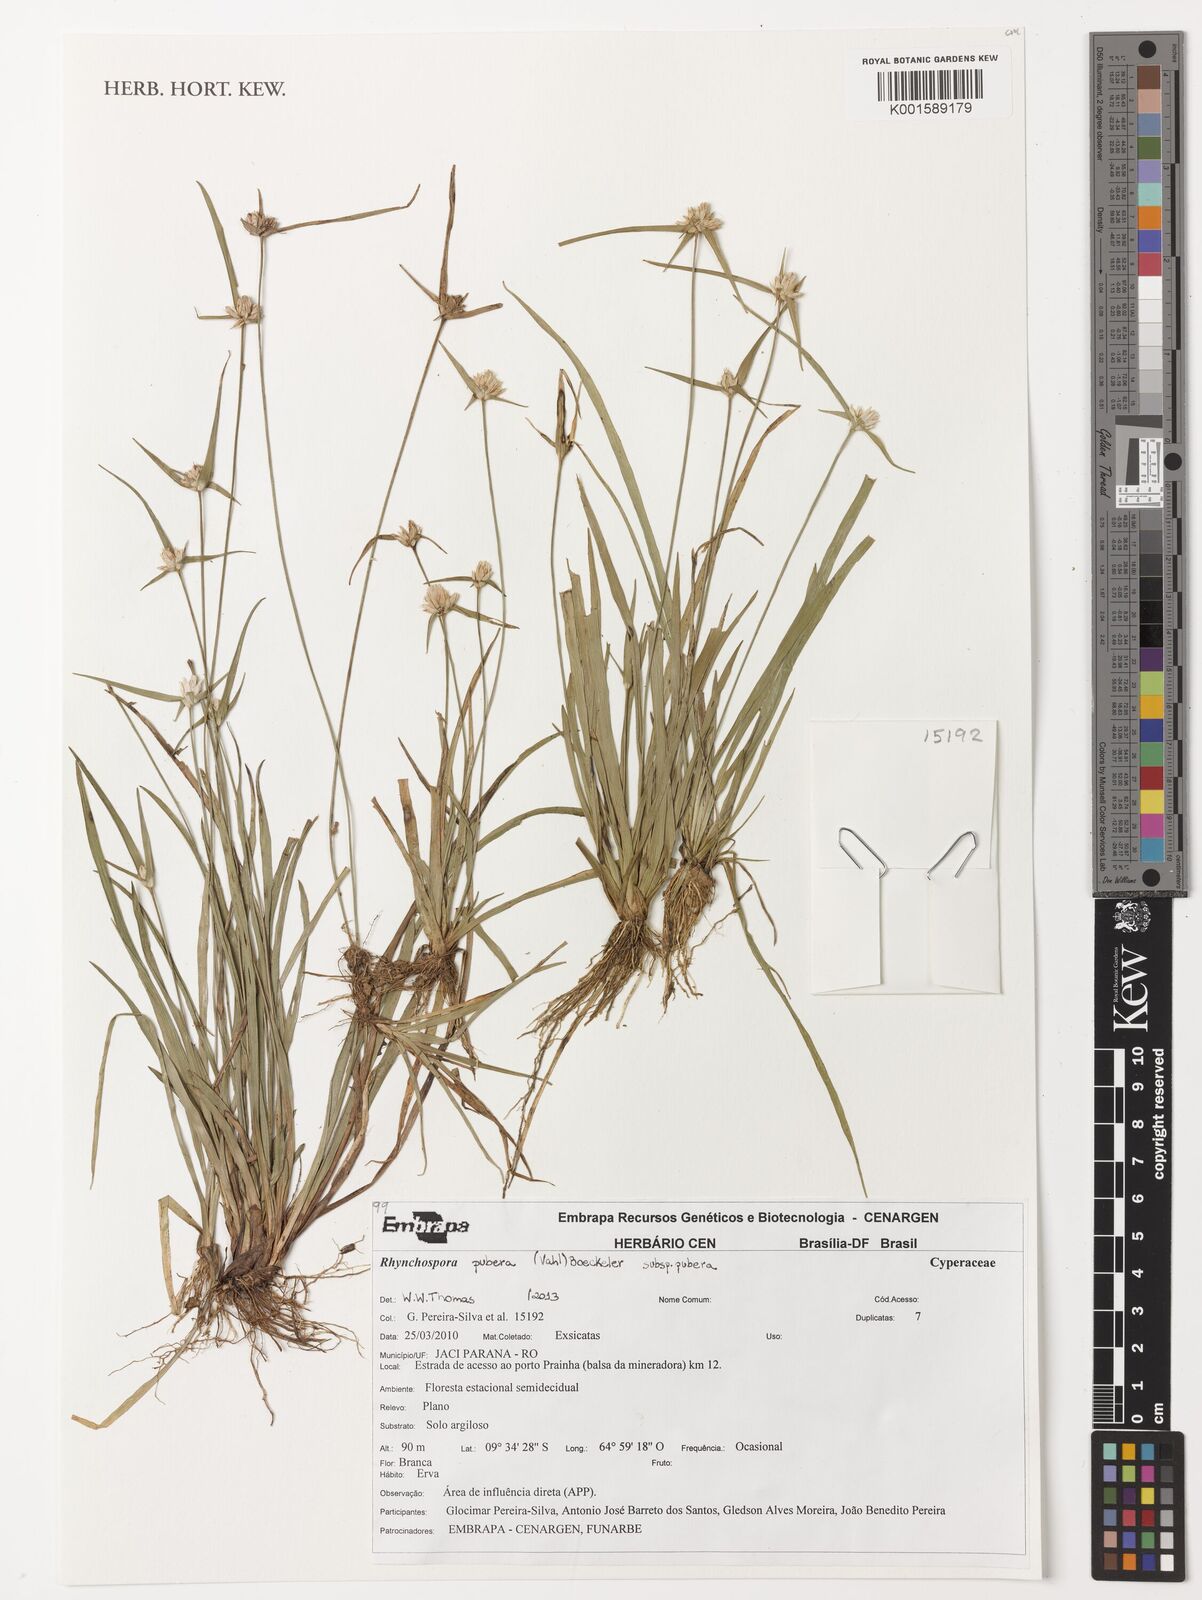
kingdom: Plantae
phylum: Tracheophyta
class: Liliopsida
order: Poales
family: Cyperaceae
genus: Rhynchospora
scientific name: Rhynchospora pubera
